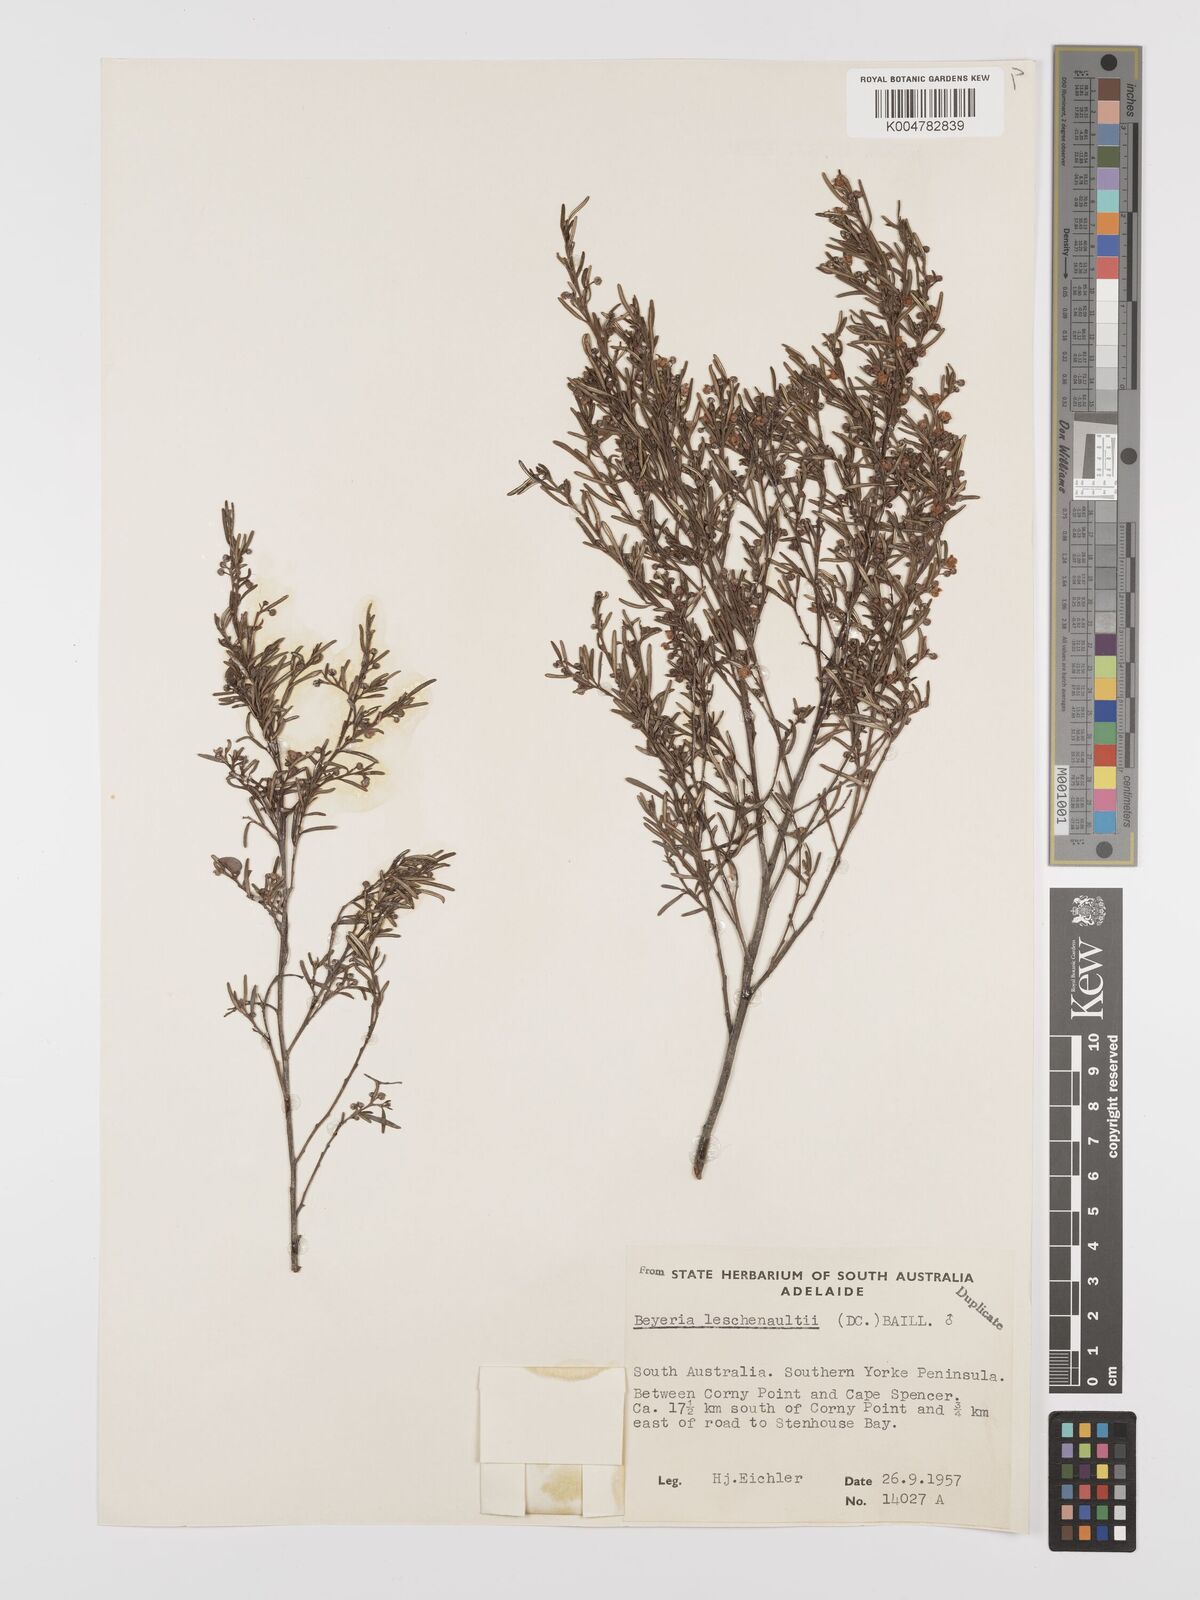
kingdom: Plantae
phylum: Tracheophyta
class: Magnoliopsida
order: Malpighiales
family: Euphorbiaceae
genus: Beyeria
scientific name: Beyeria lechenaultii
